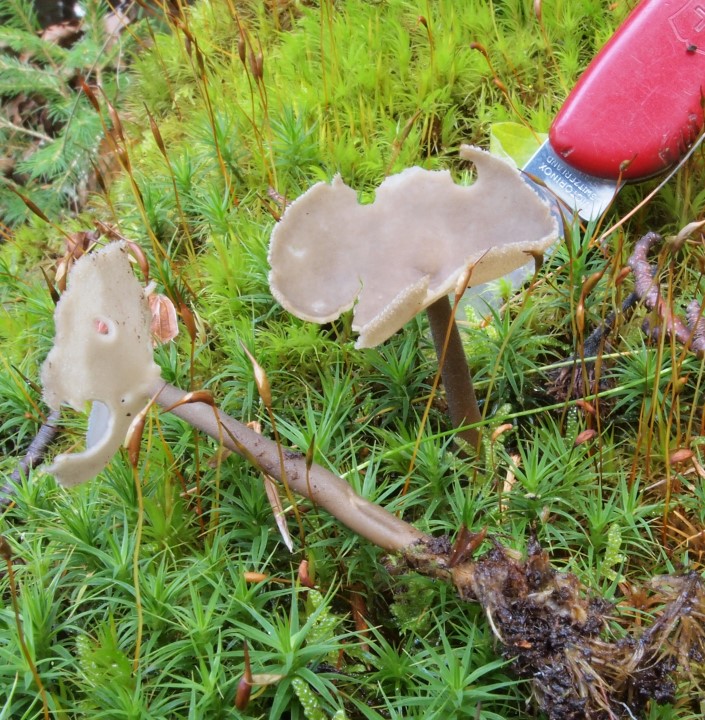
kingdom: Fungi
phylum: Ascomycota
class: Pezizomycetes
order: Pezizales
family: Helvellaceae
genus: Helvella
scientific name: Helvella macropus
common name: højstokket foldhat
